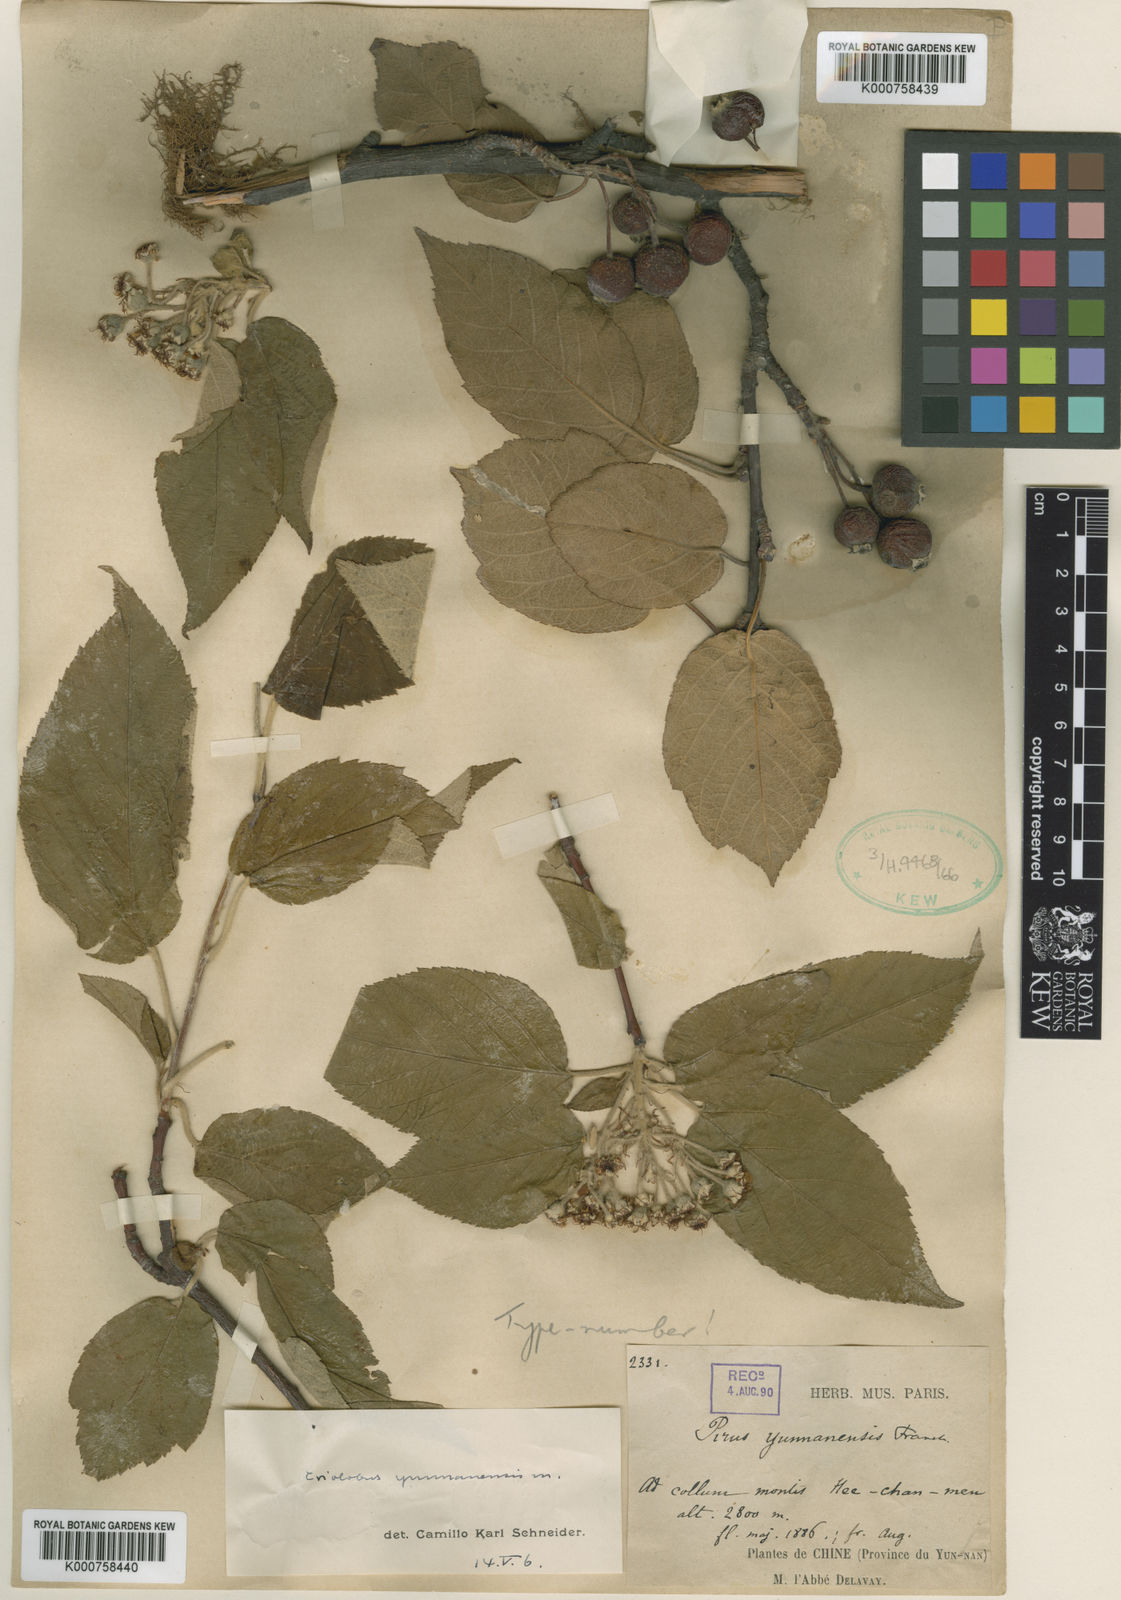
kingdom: Plantae
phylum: Tracheophyta
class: Magnoliopsida
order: Rosales
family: Rosaceae
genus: Malus
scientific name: Malus yunnanensis
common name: Yunnan crabapple
